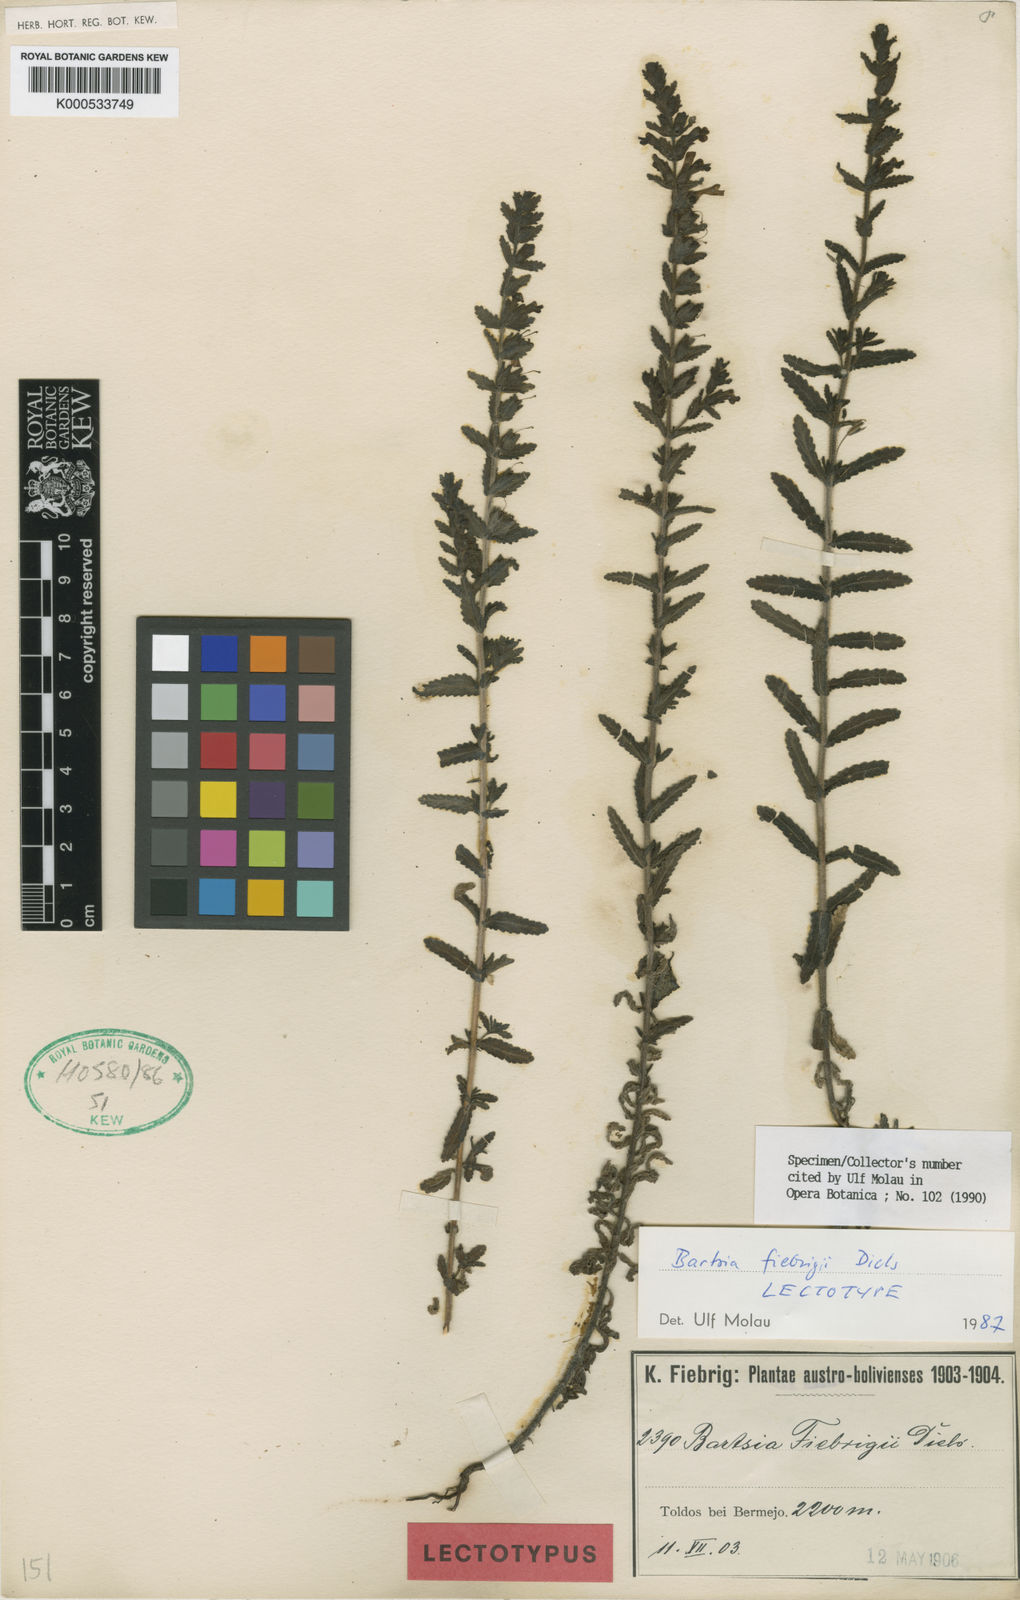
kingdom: Plantae
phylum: Tracheophyta
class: Magnoliopsida
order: Lamiales
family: Orobanchaceae
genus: Neobartsia
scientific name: Neobartsia fiebrigii
